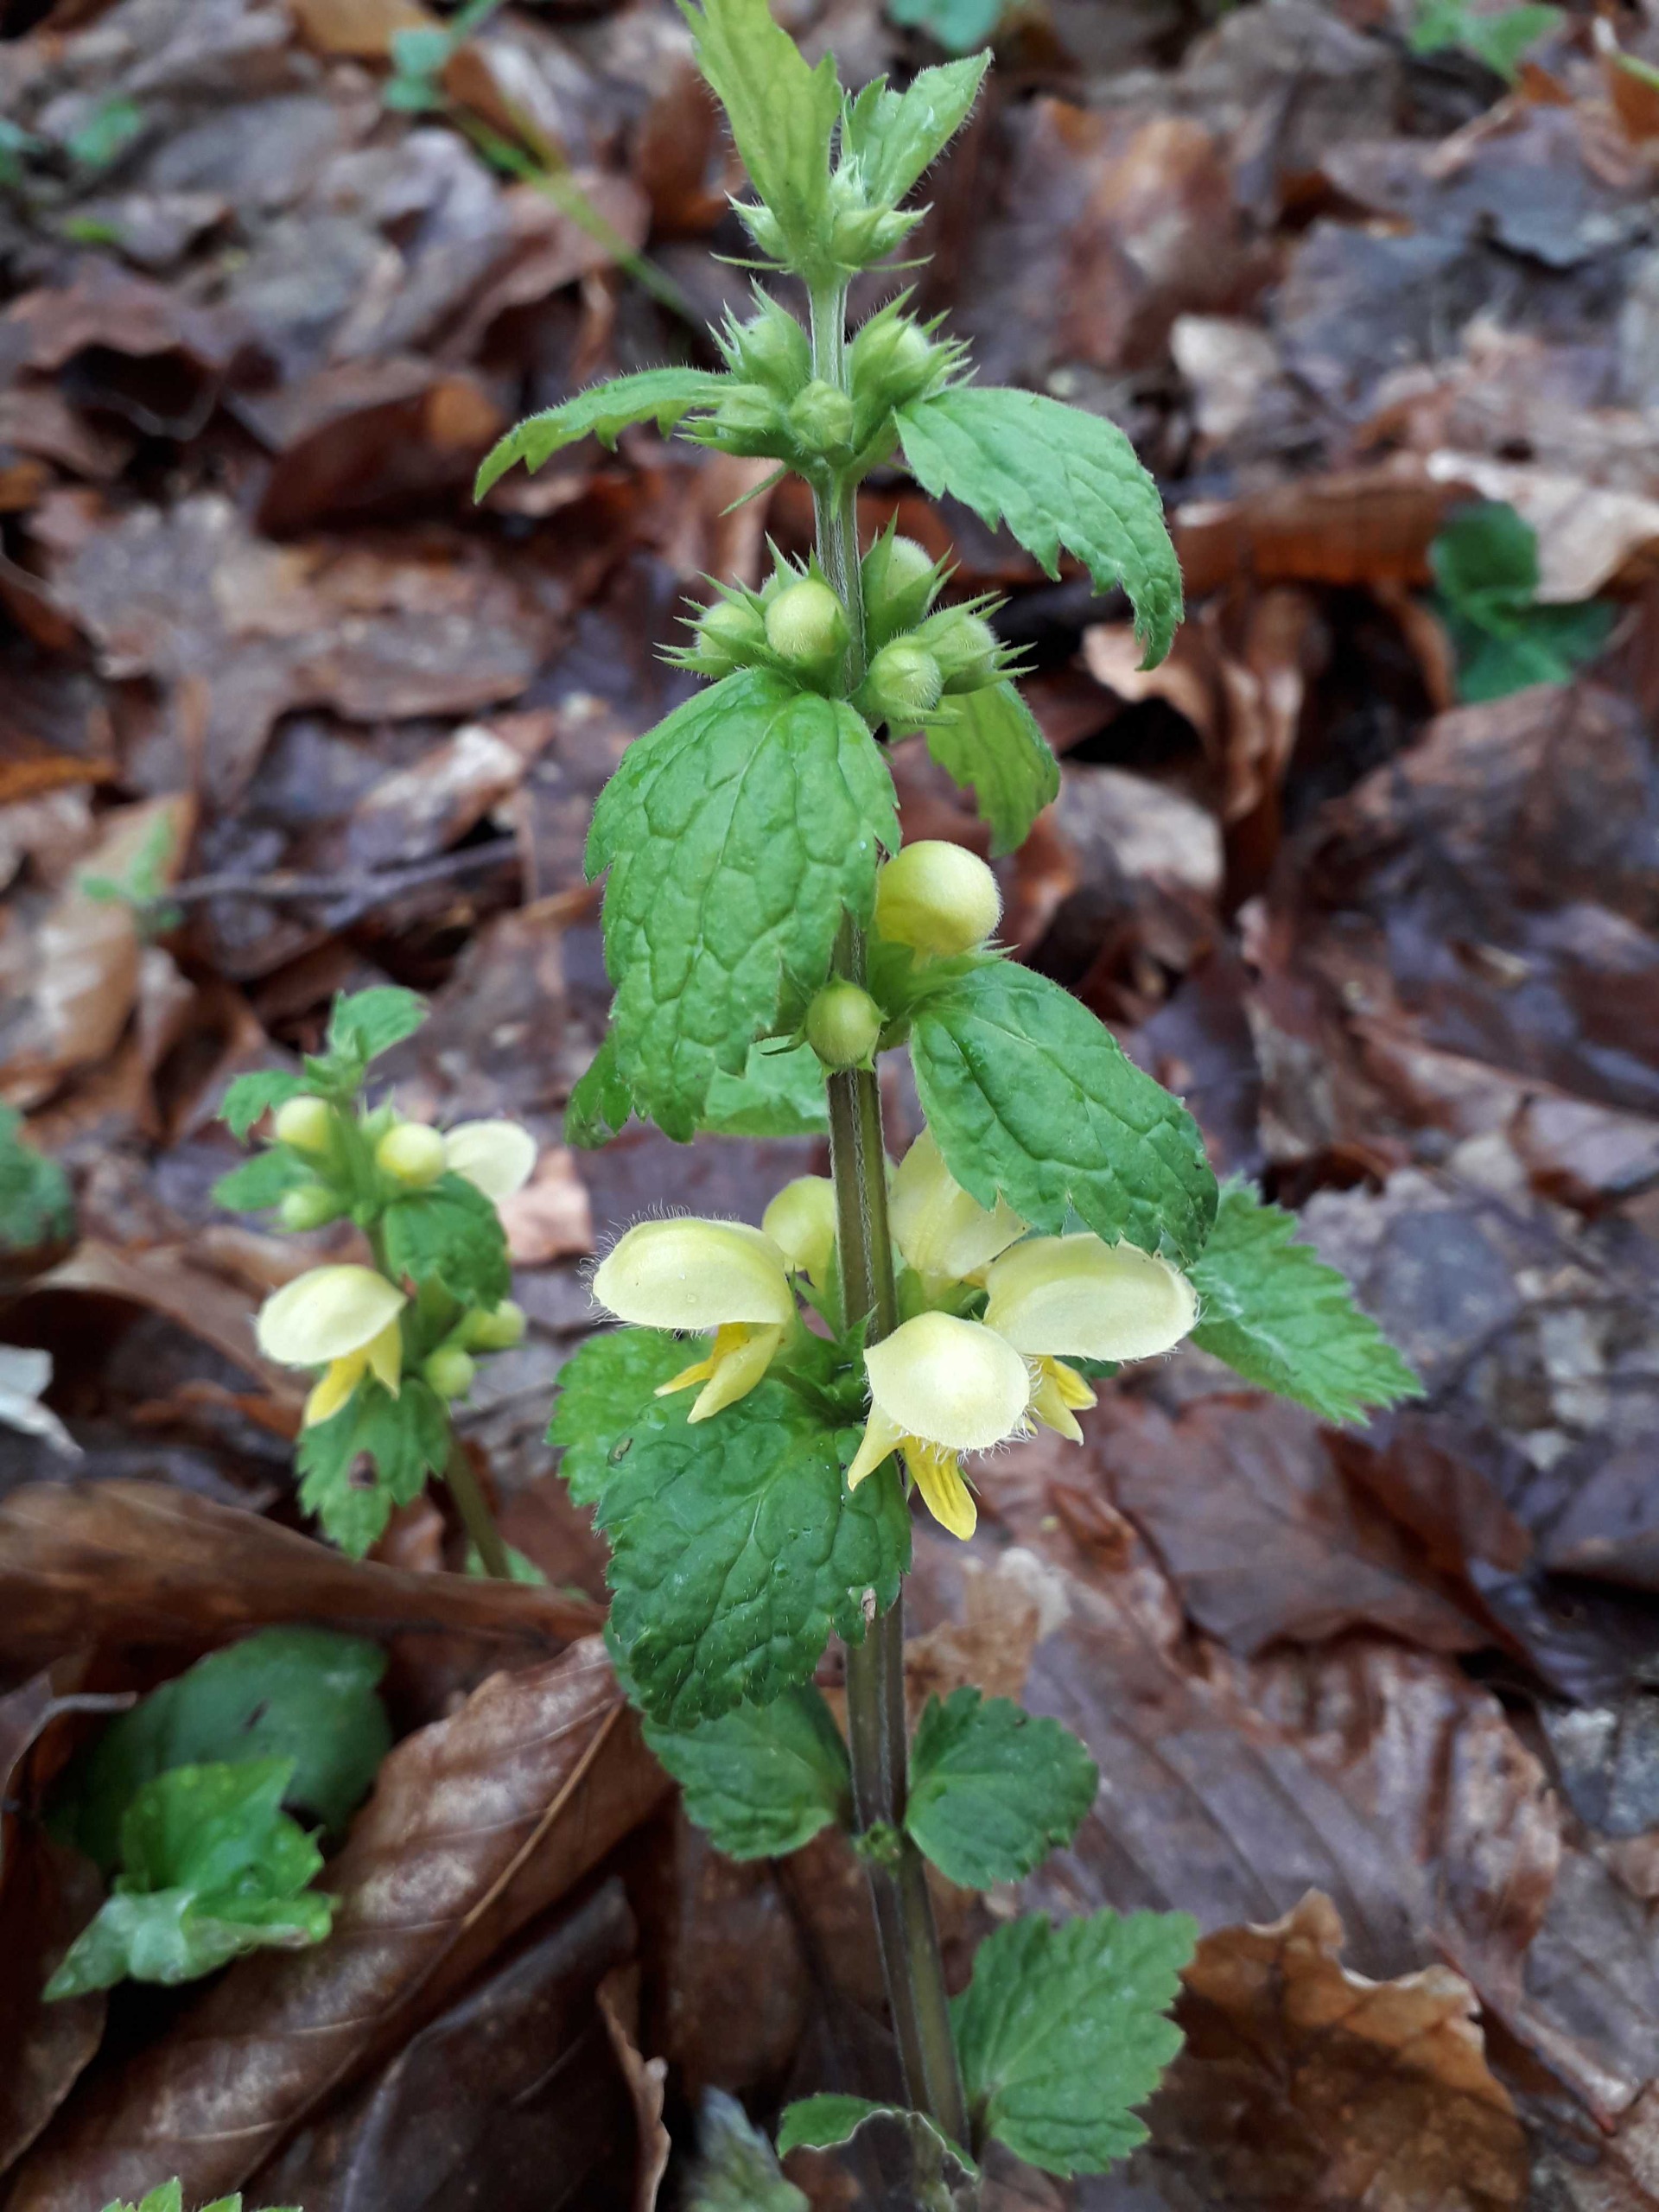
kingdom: Plantae
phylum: Tracheophyta
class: Magnoliopsida
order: Lamiales
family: Lamiaceae
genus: Lamium
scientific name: Lamium galeobdolon
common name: Guldnælde
